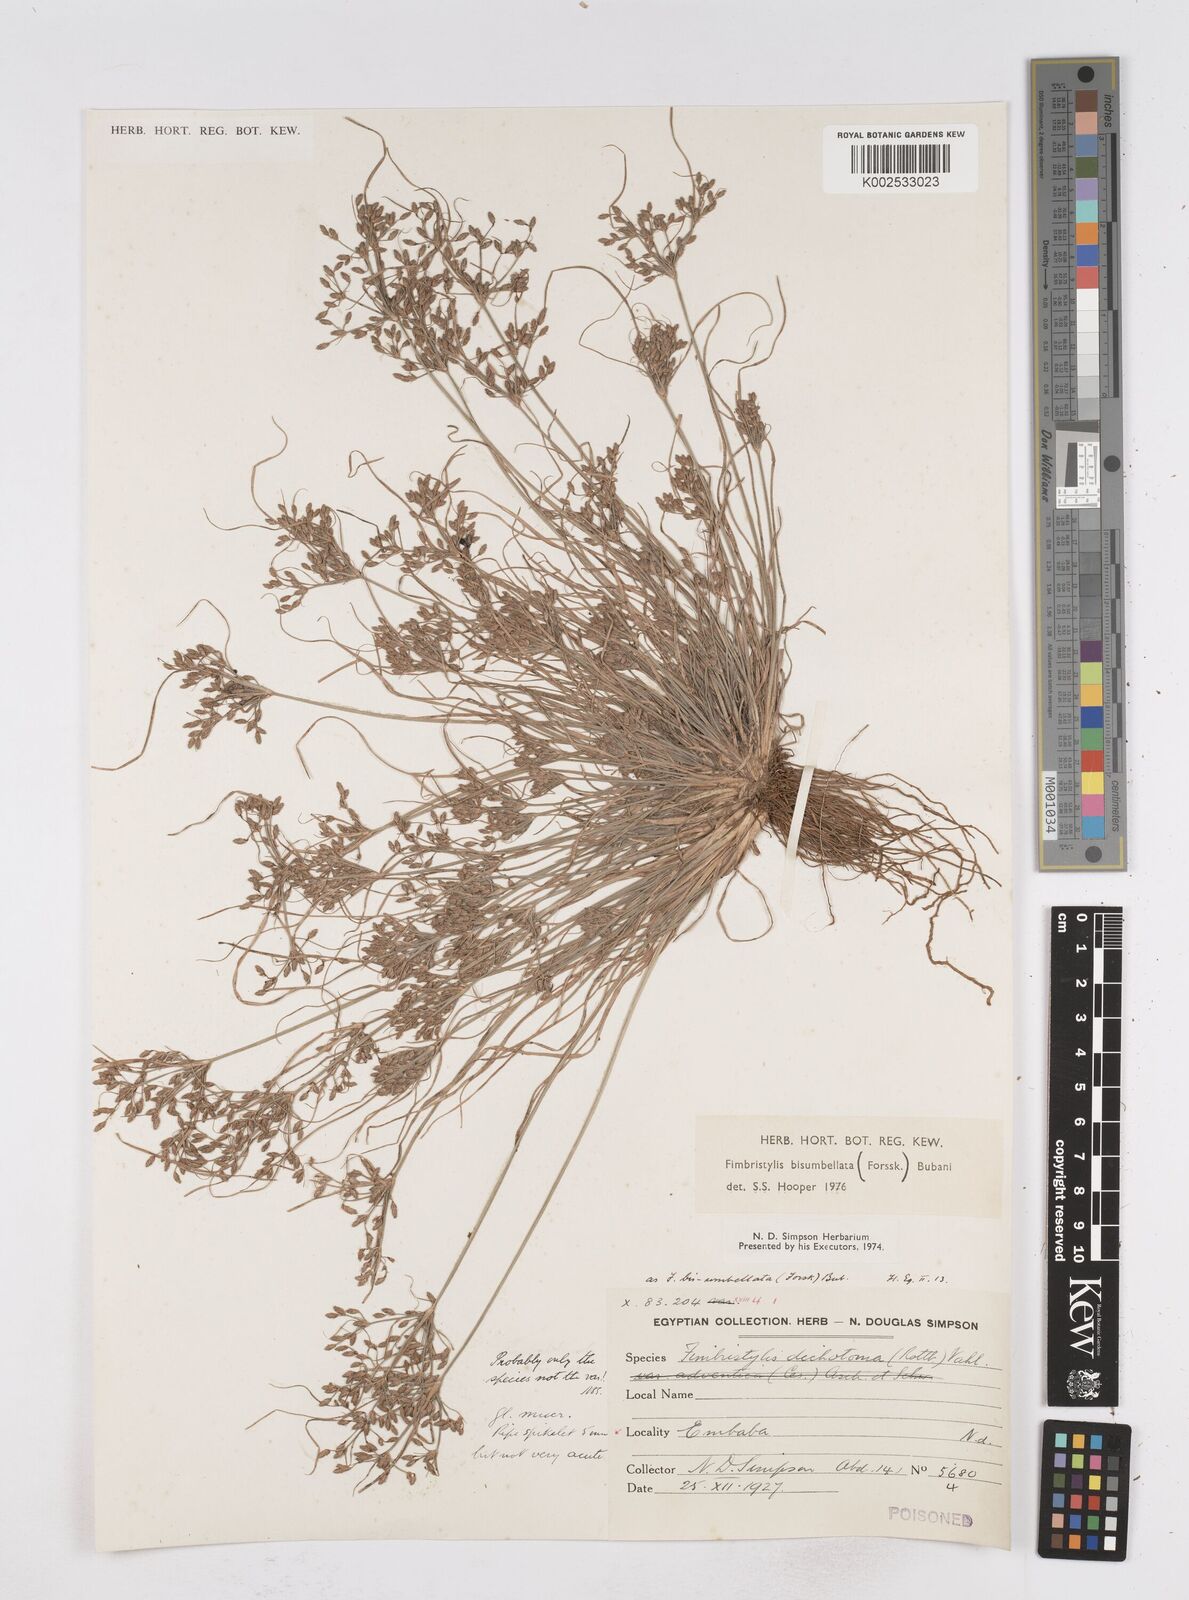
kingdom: Plantae
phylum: Tracheophyta
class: Liliopsida
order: Poales
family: Cyperaceae
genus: Fimbristylis
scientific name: Fimbristylis bisumbellata
